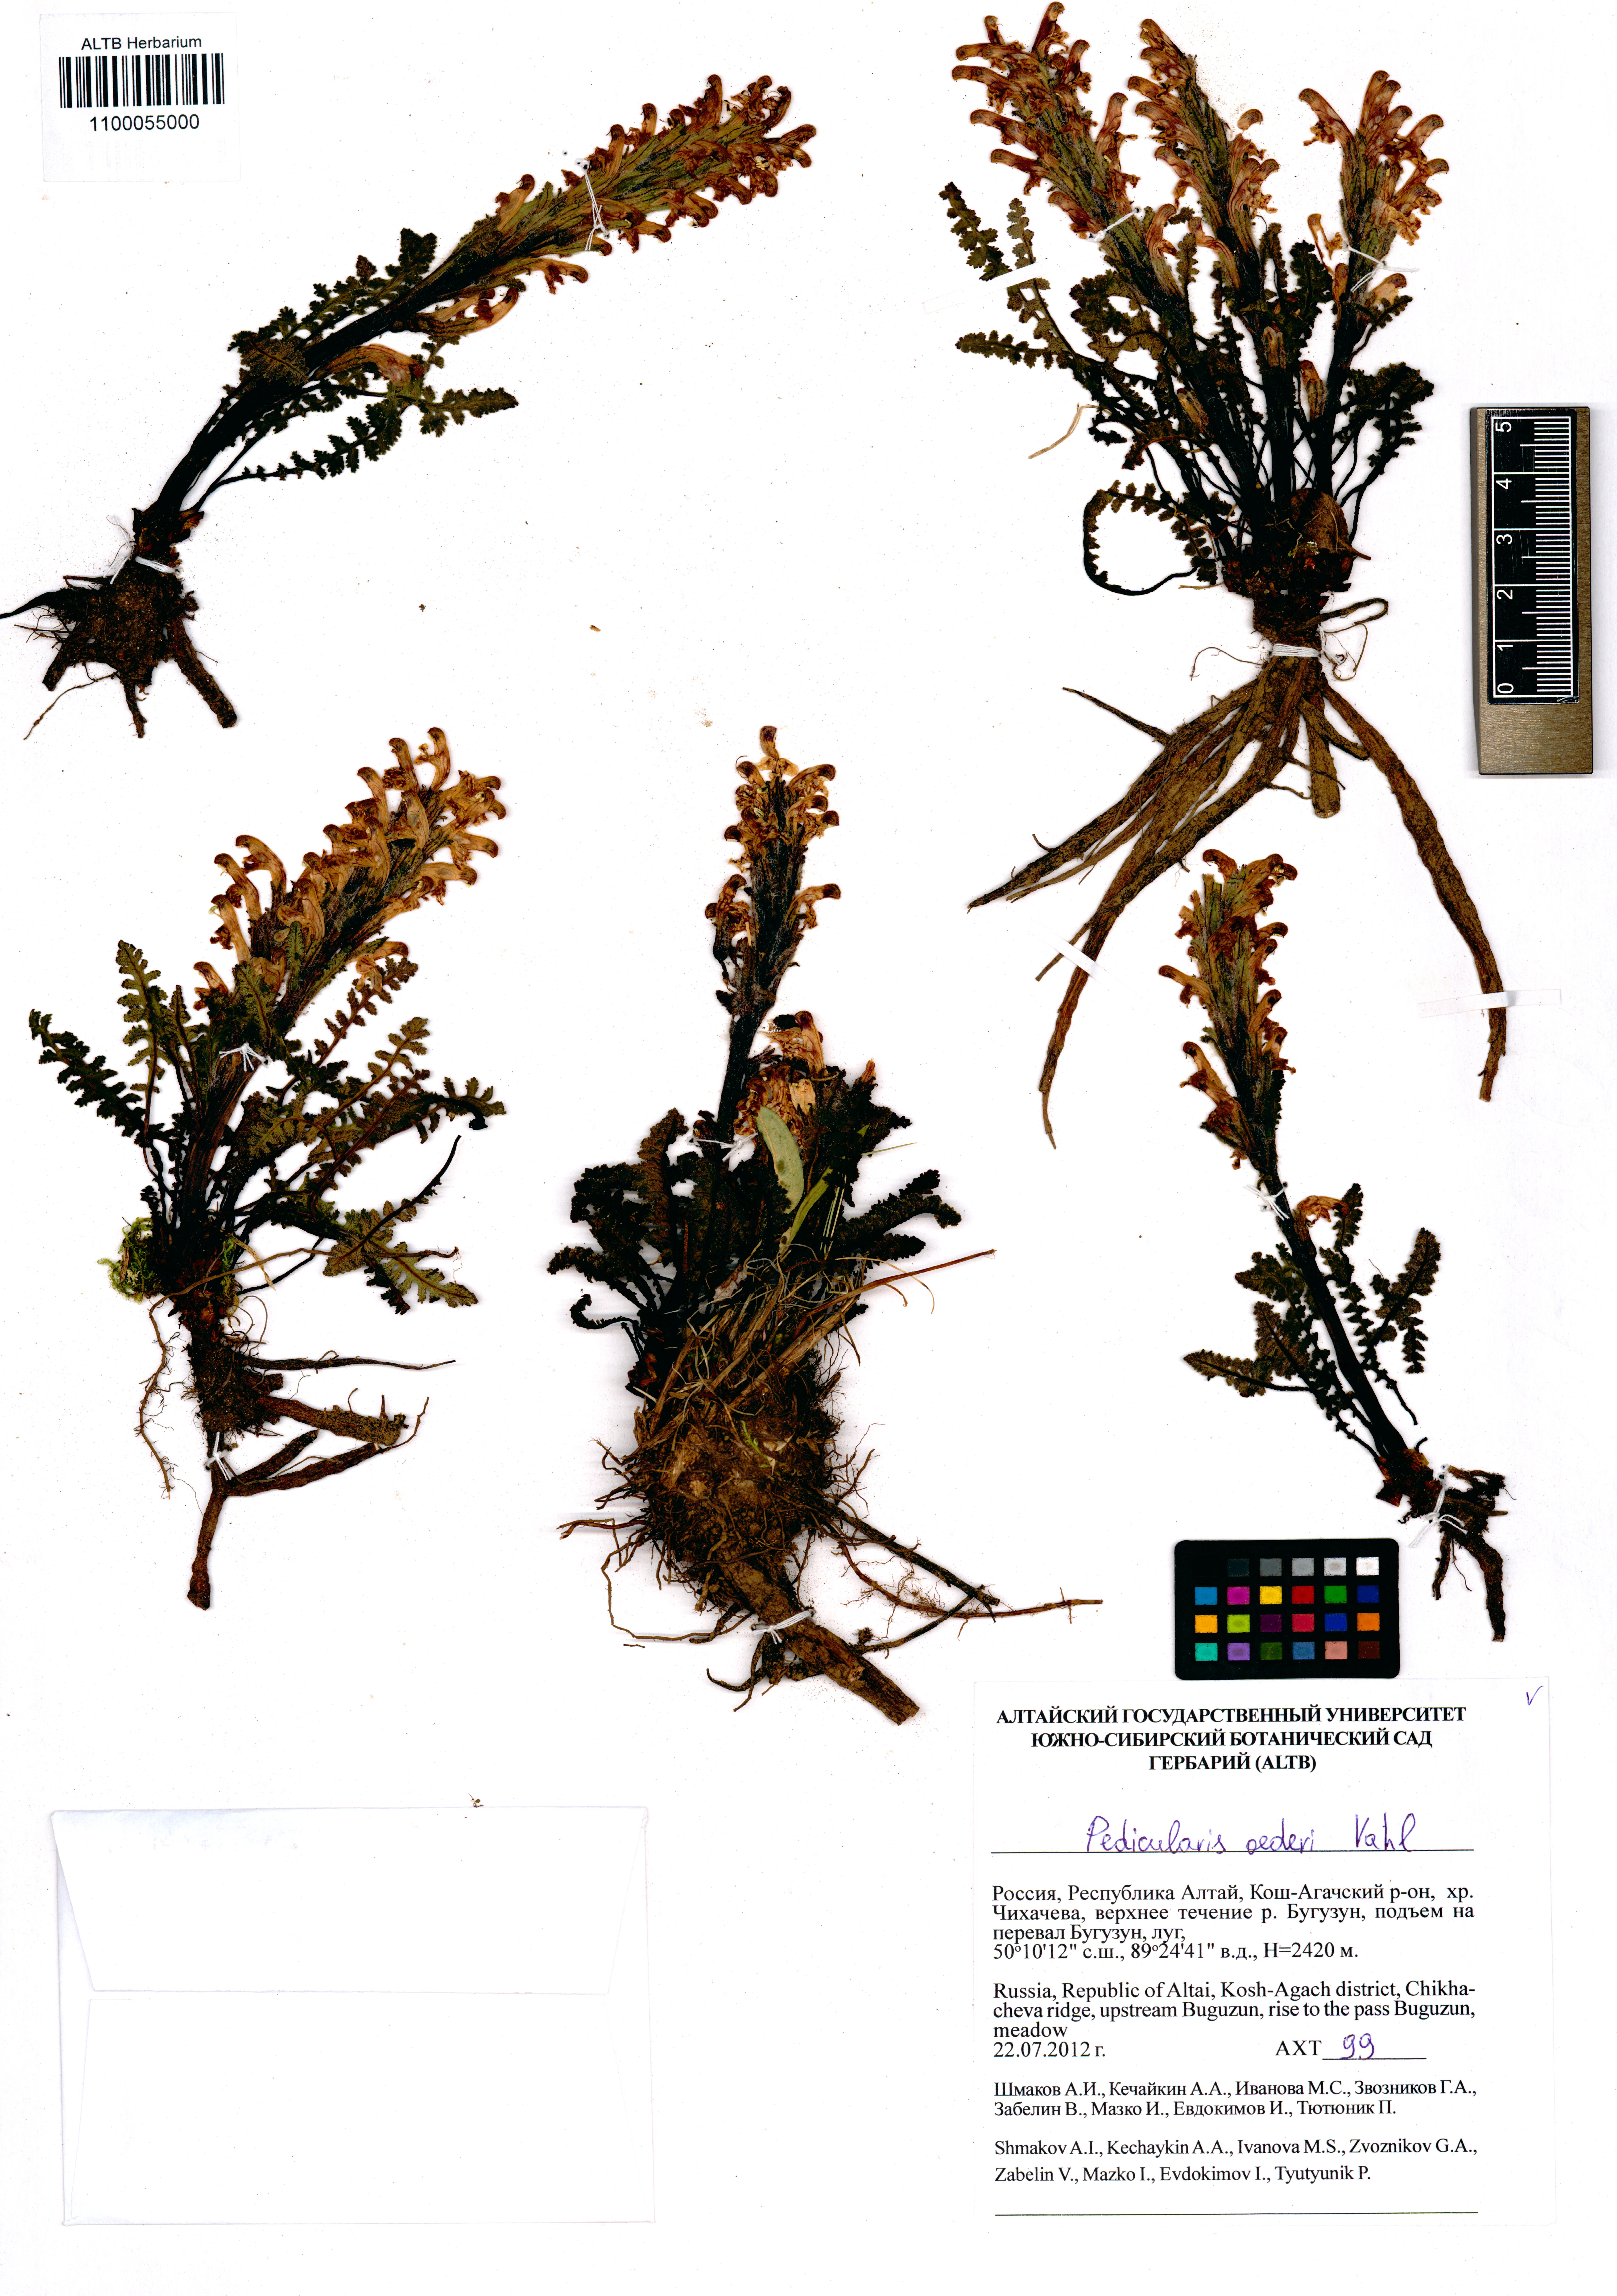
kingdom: Plantae
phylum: Tracheophyta
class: Magnoliopsida
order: Lamiales
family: Orobanchaceae
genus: Pedicularis
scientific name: Pedicularis oederi
